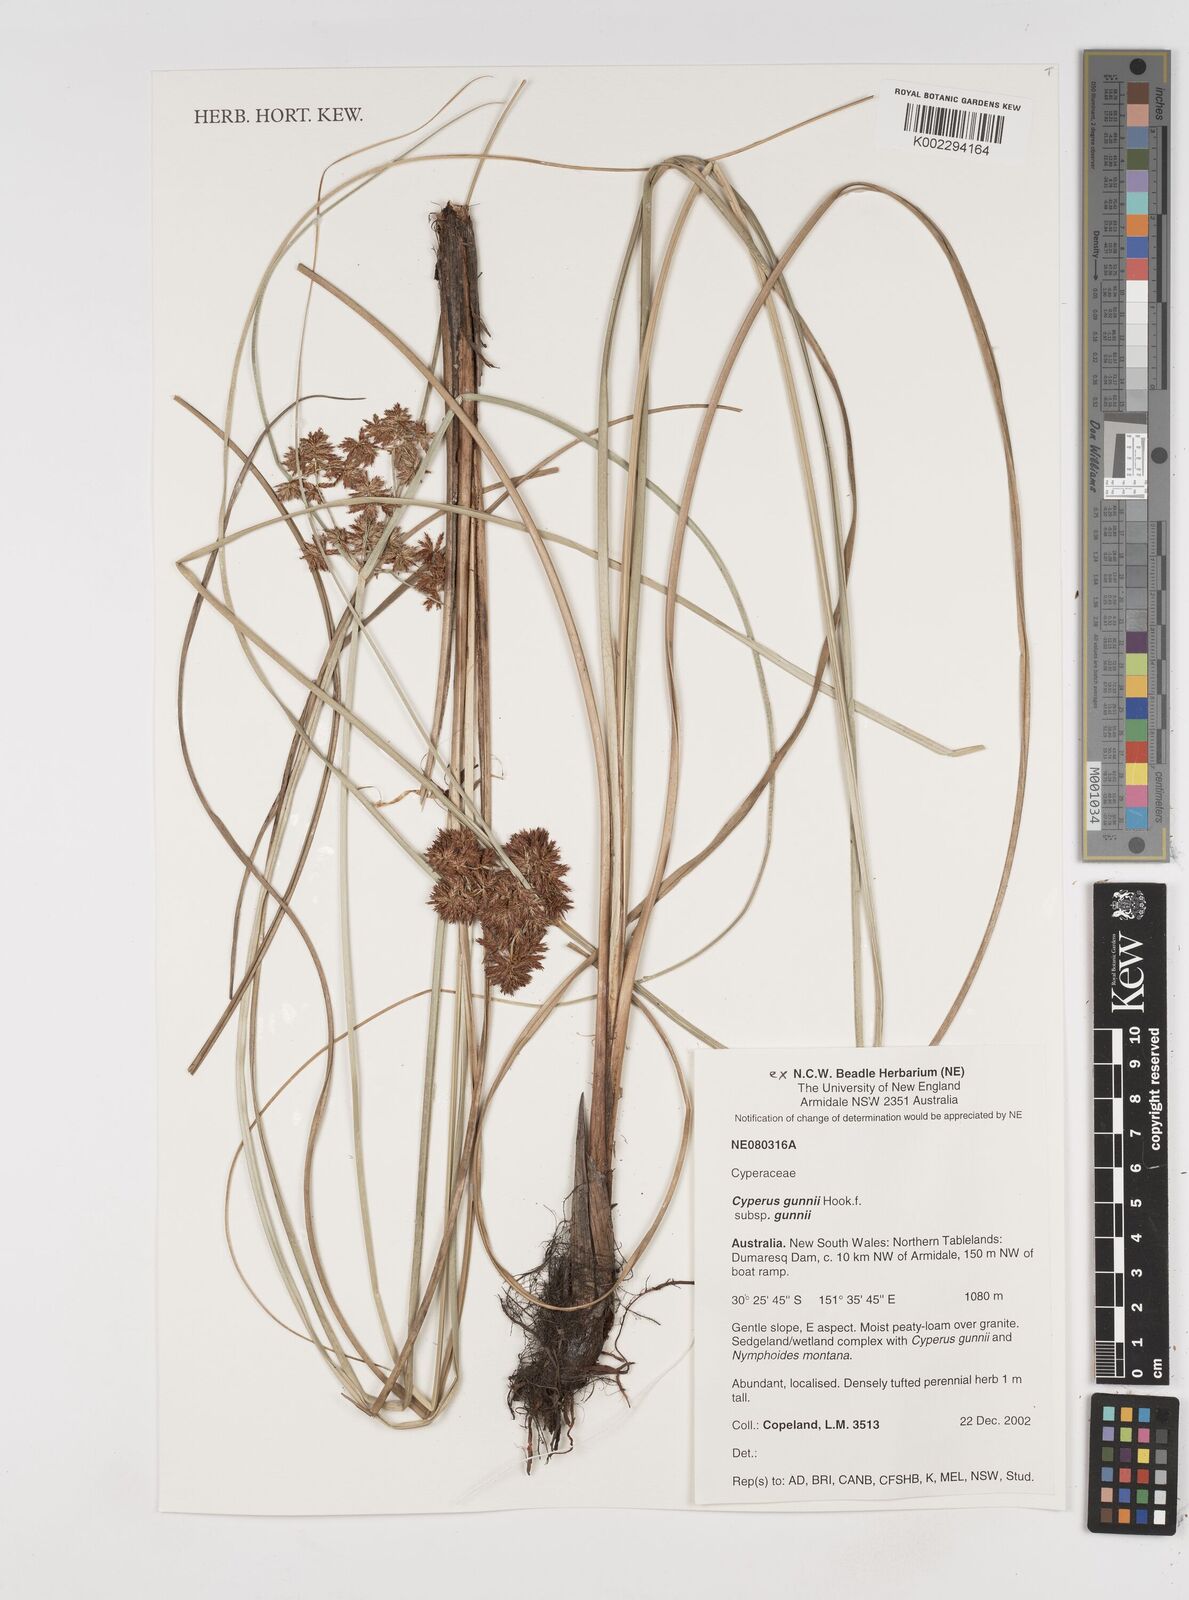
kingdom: Plantae
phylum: Tracheophyta
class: Liliopsida
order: Poales
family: Cyperaceae
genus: Cyperus
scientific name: Cyperus gunnii
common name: Flecked flat-sedge
